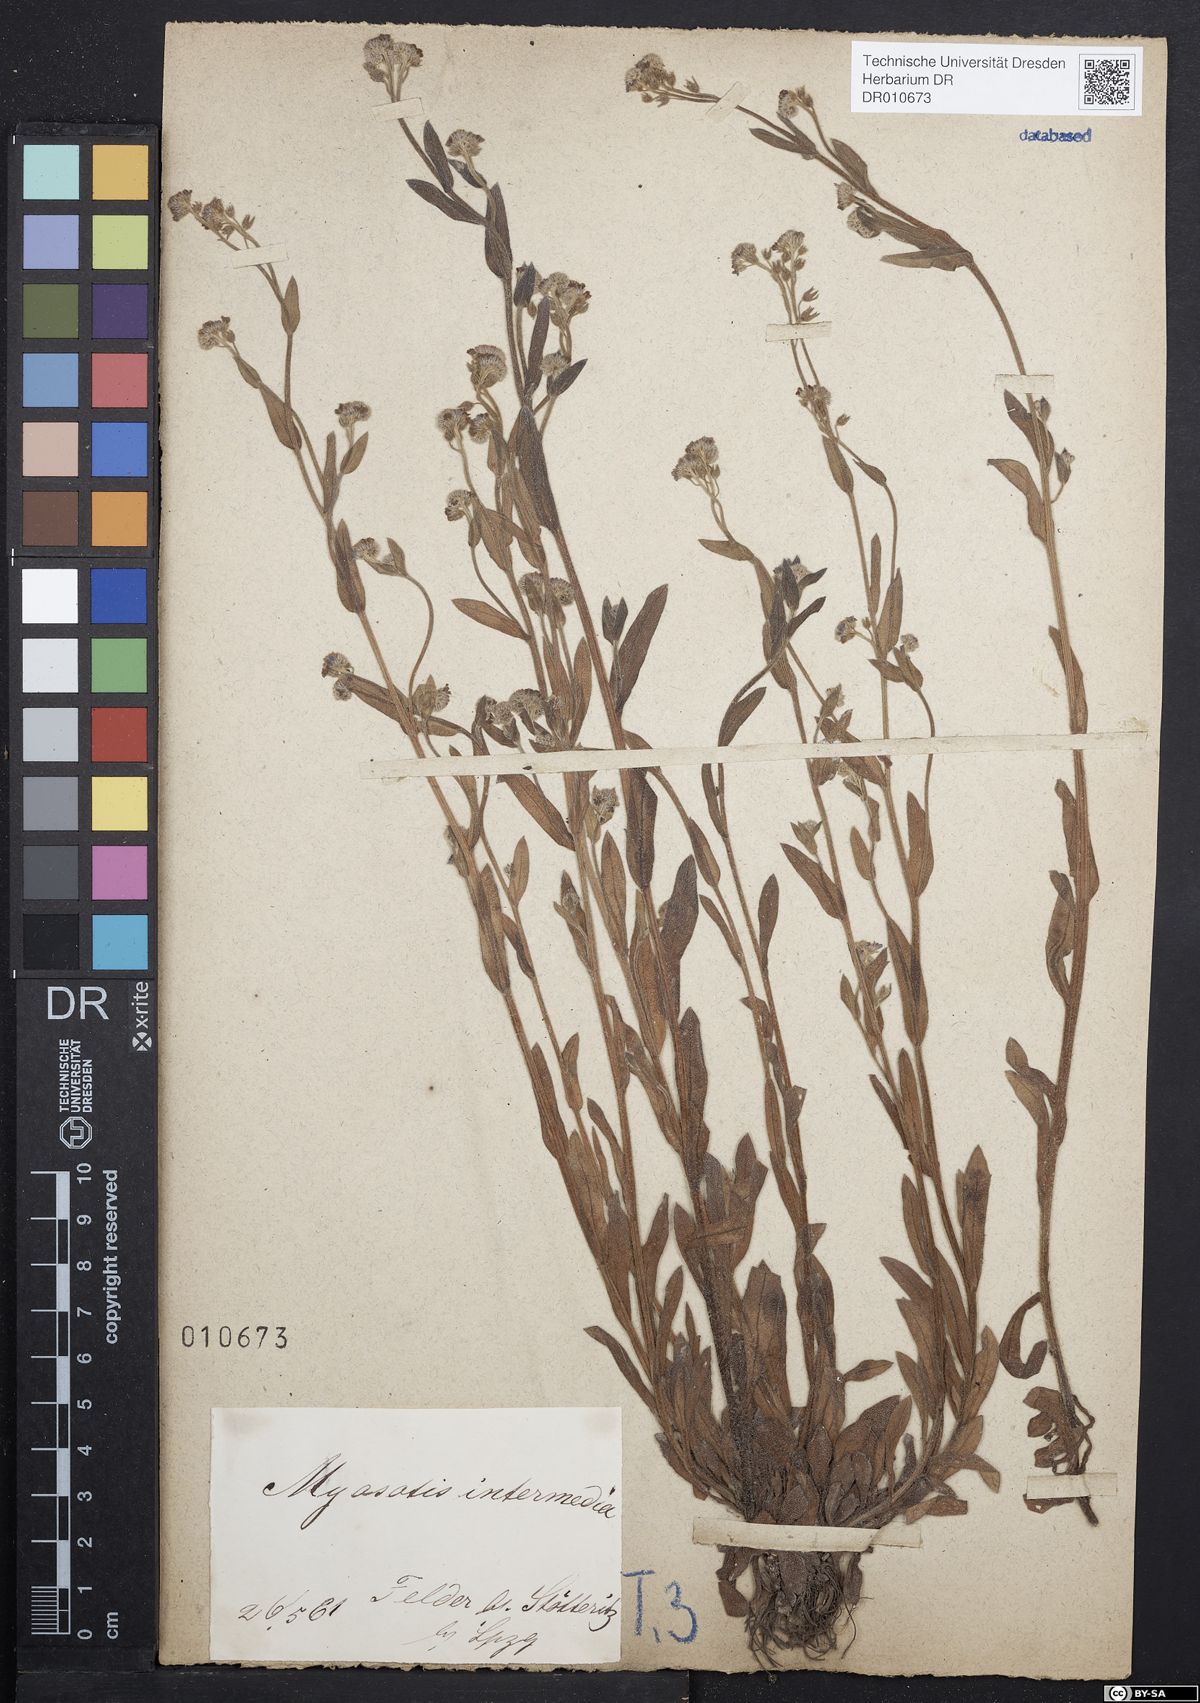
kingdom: Plantae
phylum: Tracheophyta
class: Magnoliopsida
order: Boraginales
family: Boraginaceae
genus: Myosotis
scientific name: Myosotis arvensis
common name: Field forget-me-not
